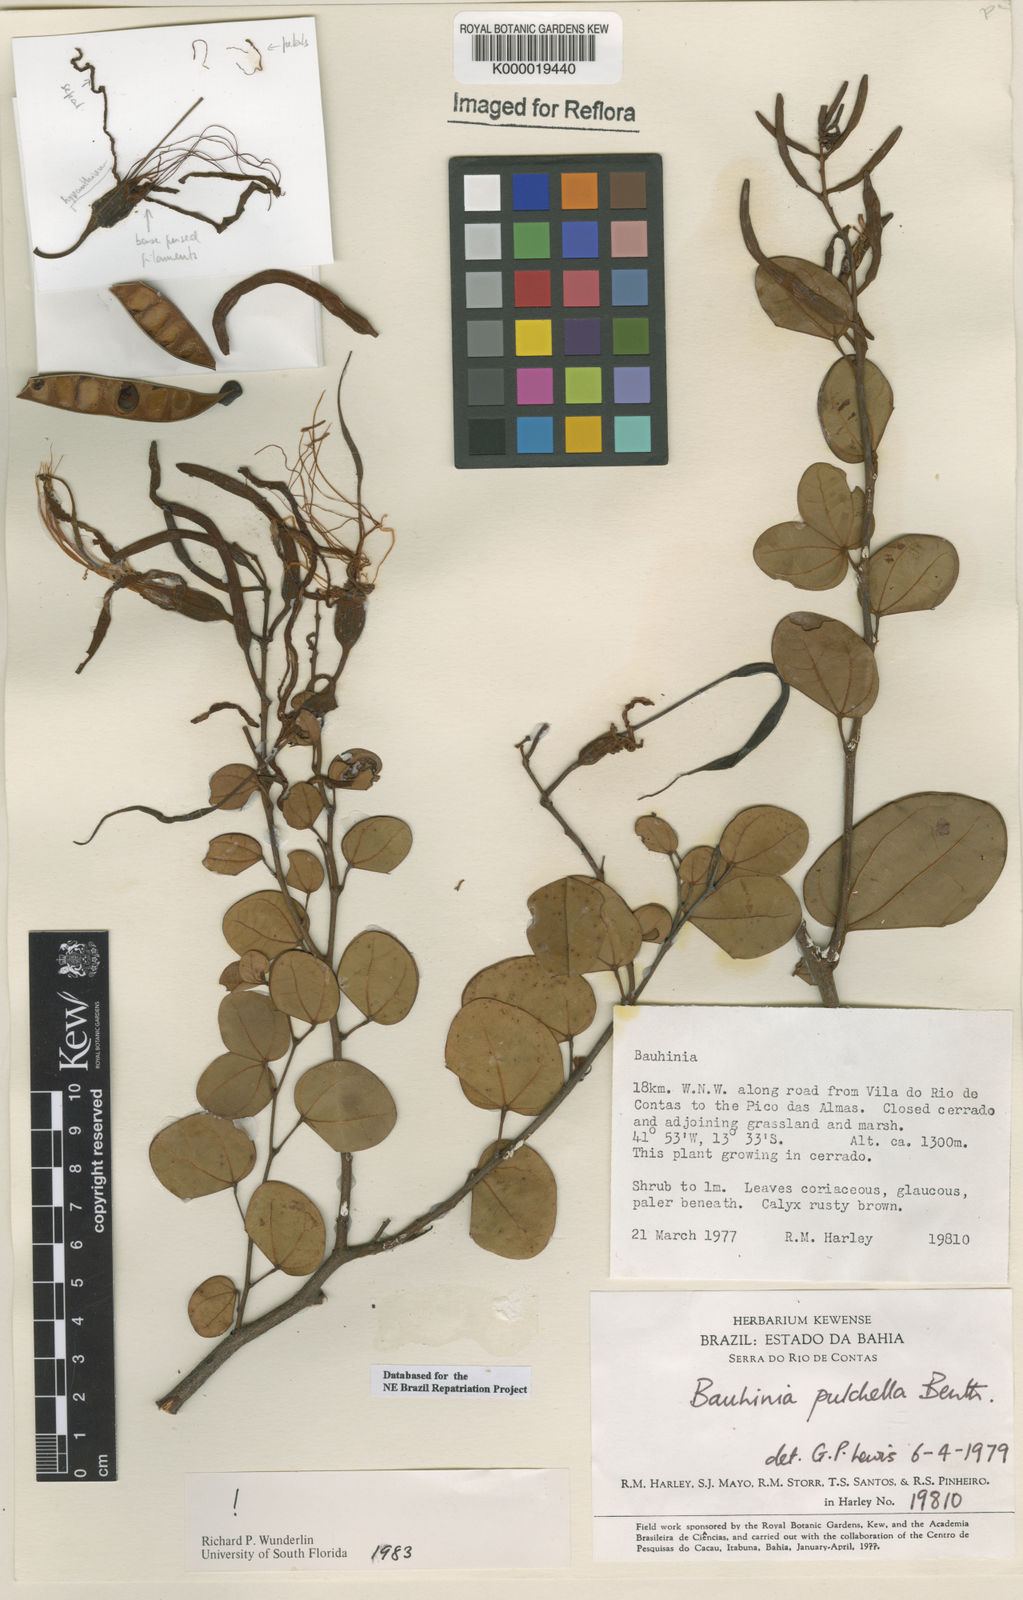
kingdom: Plantae
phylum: Tracheophyta
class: Magnoliopsida
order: Fabales
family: Fabaceae
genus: Bauhinia
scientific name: Bauhinia pulchella
